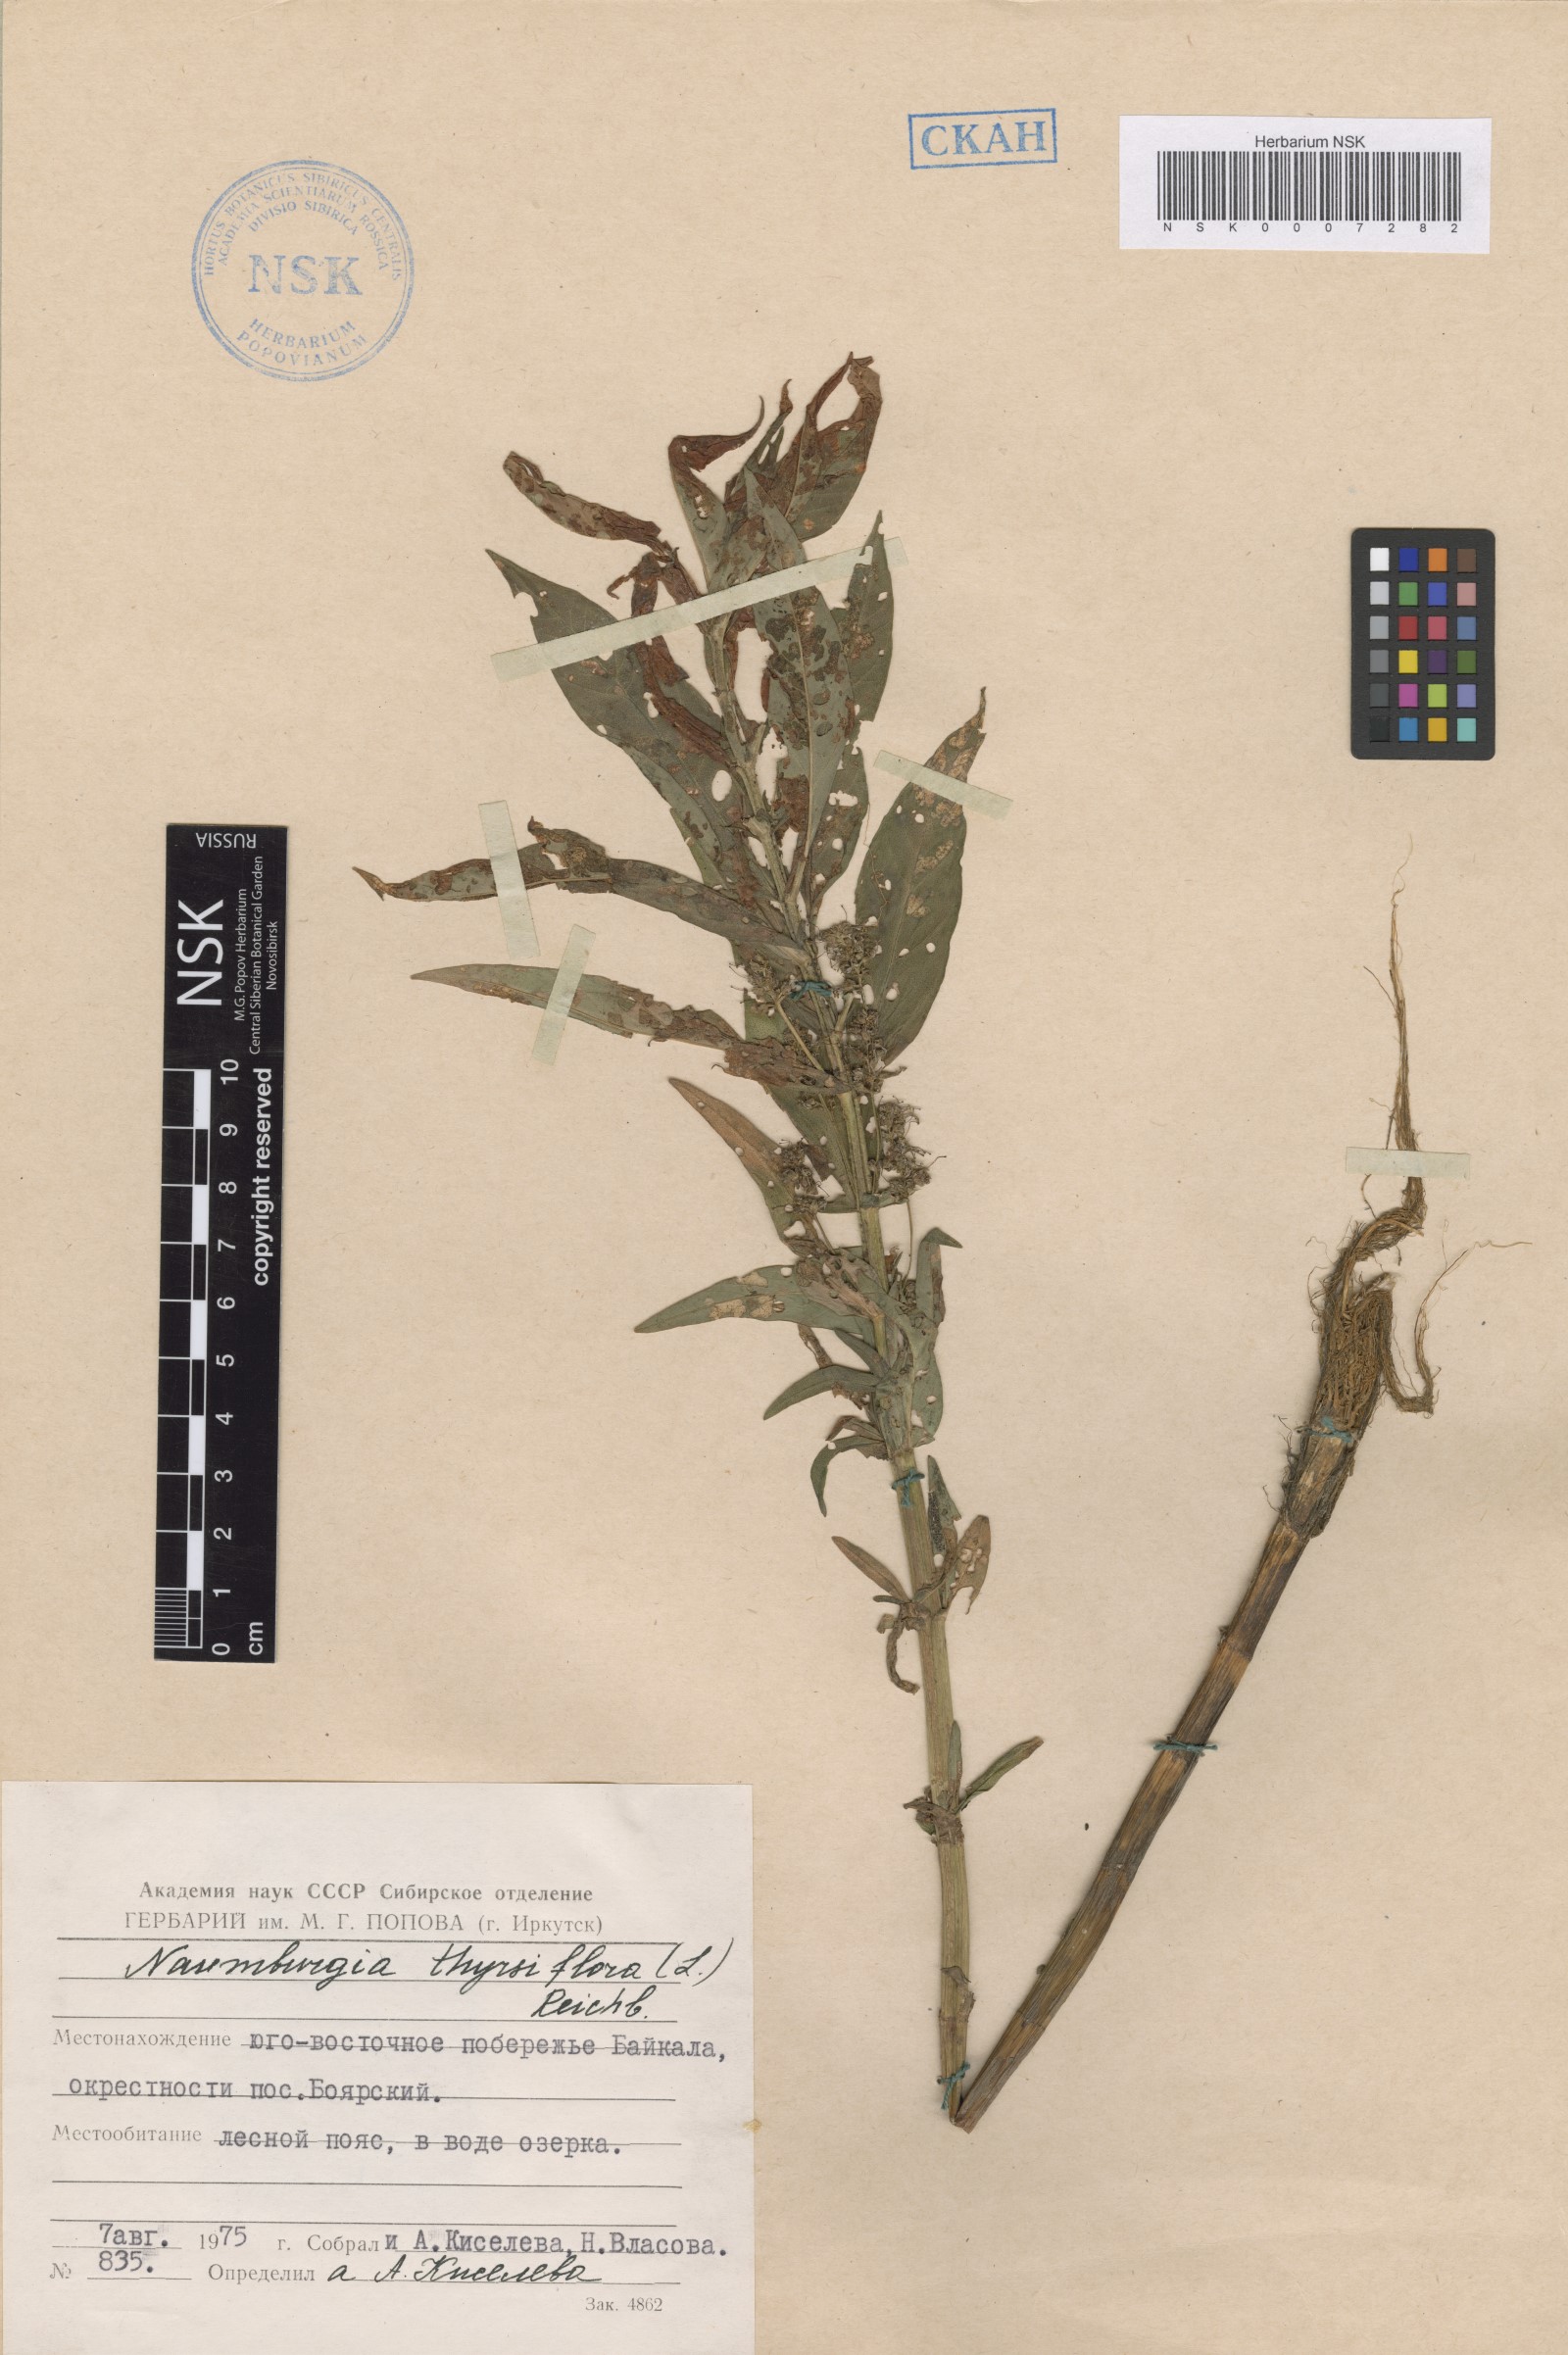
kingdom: Plantae
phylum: Tracheophyta
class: Magnoliopsida
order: Ericales
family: Primulaceae
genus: Lysimachia
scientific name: Lysimachia thyrsiflora
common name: Tufted loosestrife
